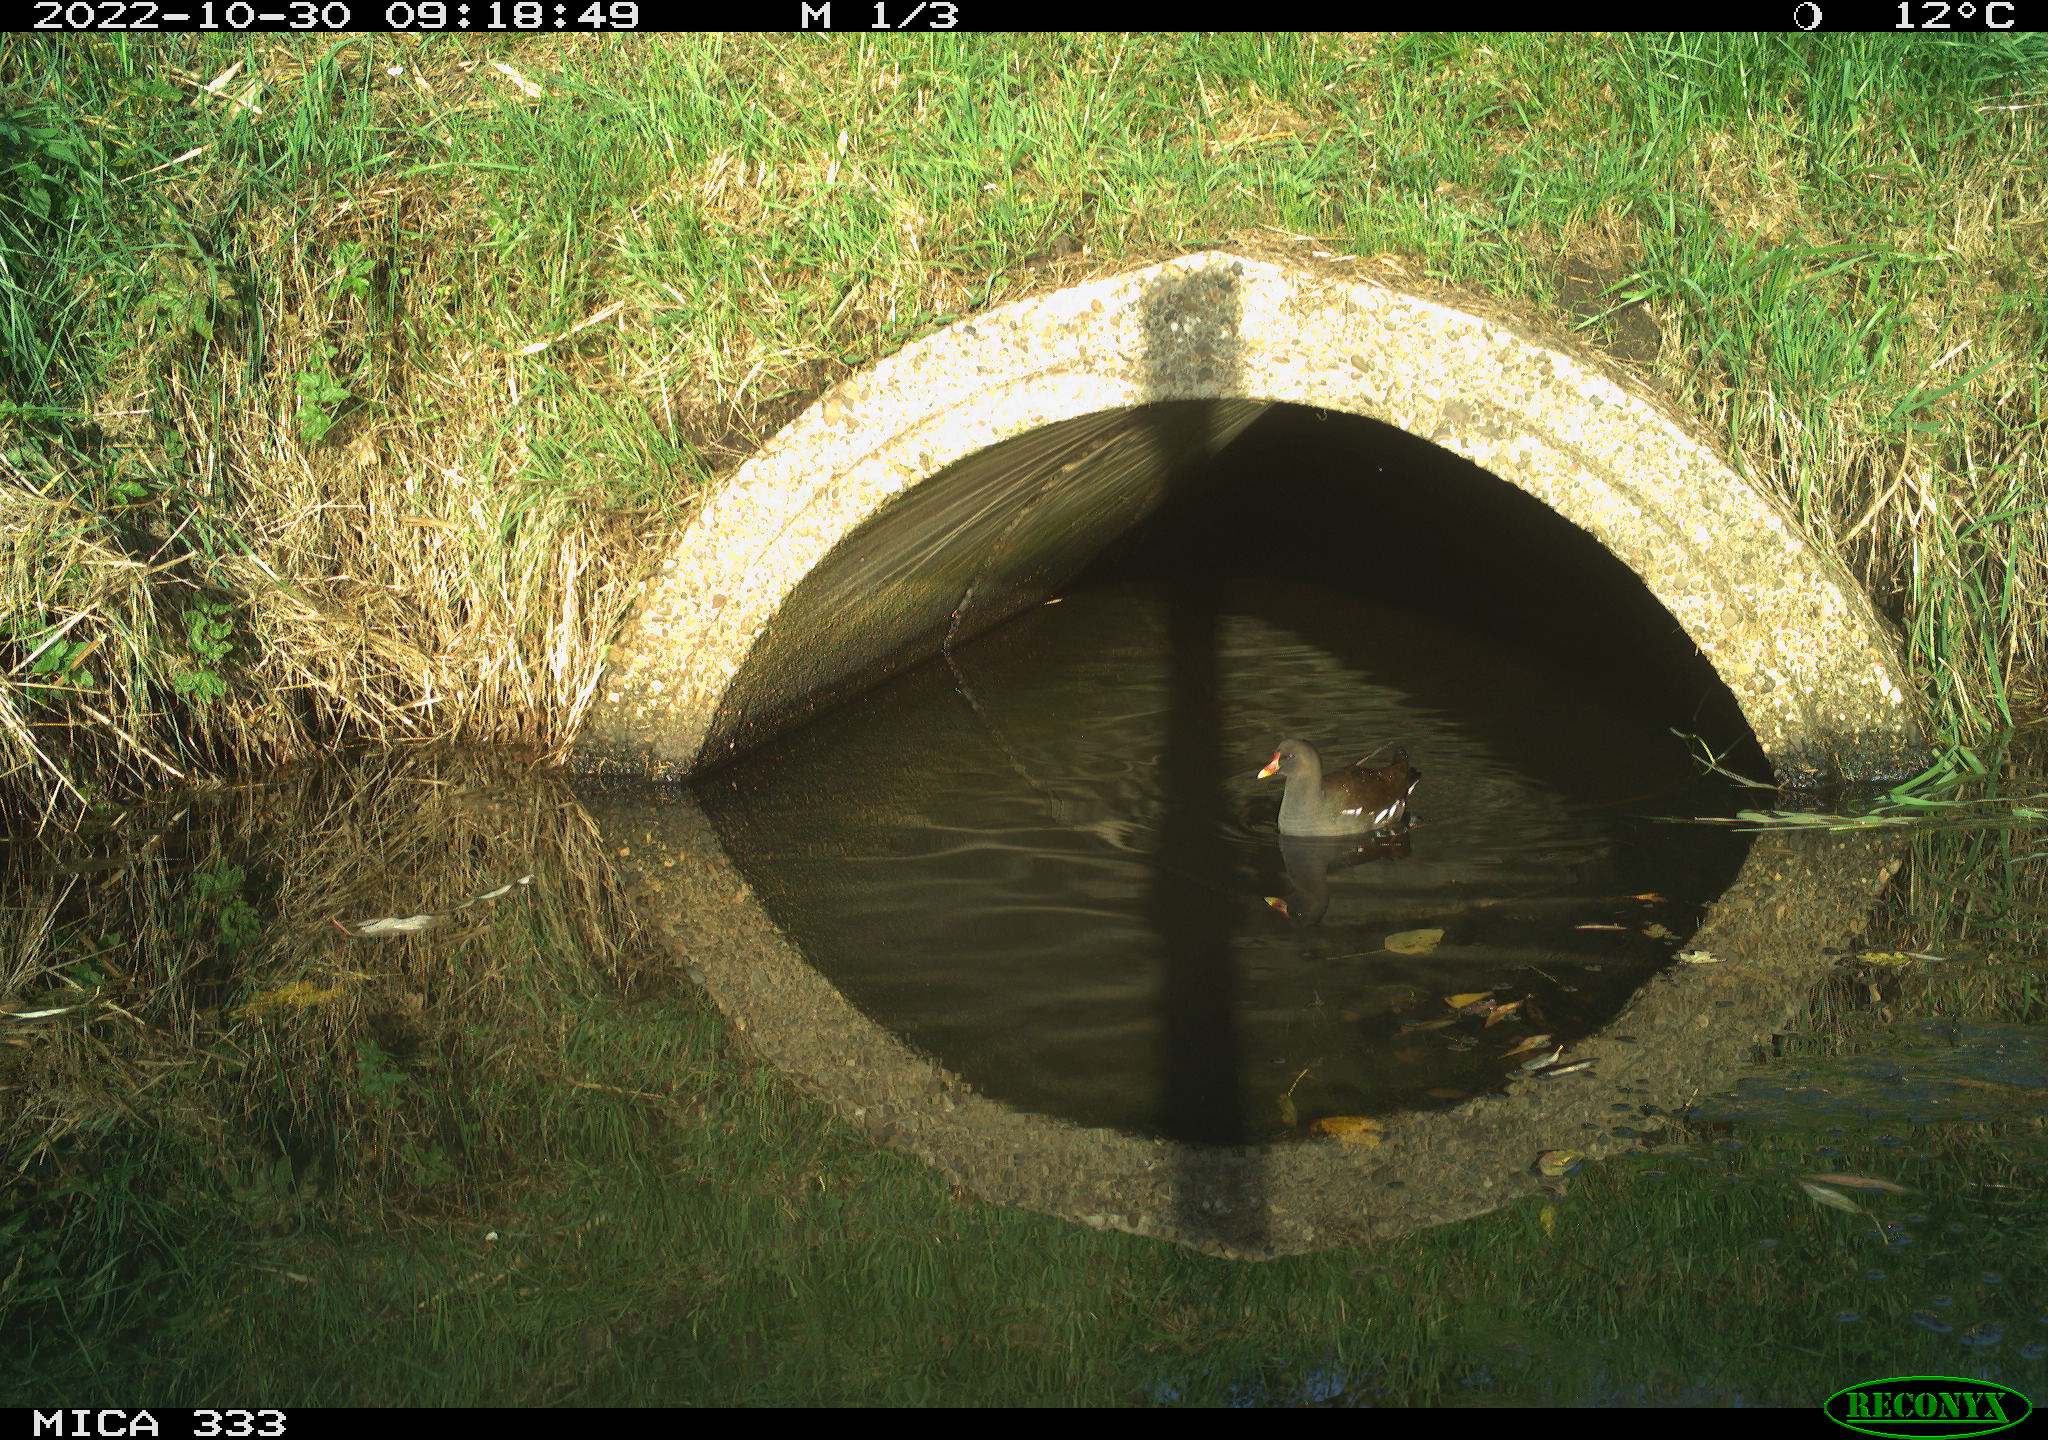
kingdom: Animalia
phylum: Chordata
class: Aves
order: Gruiformes
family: Rallidae
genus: Gallinula
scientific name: Gallinula chloropus
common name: Common moorhen
